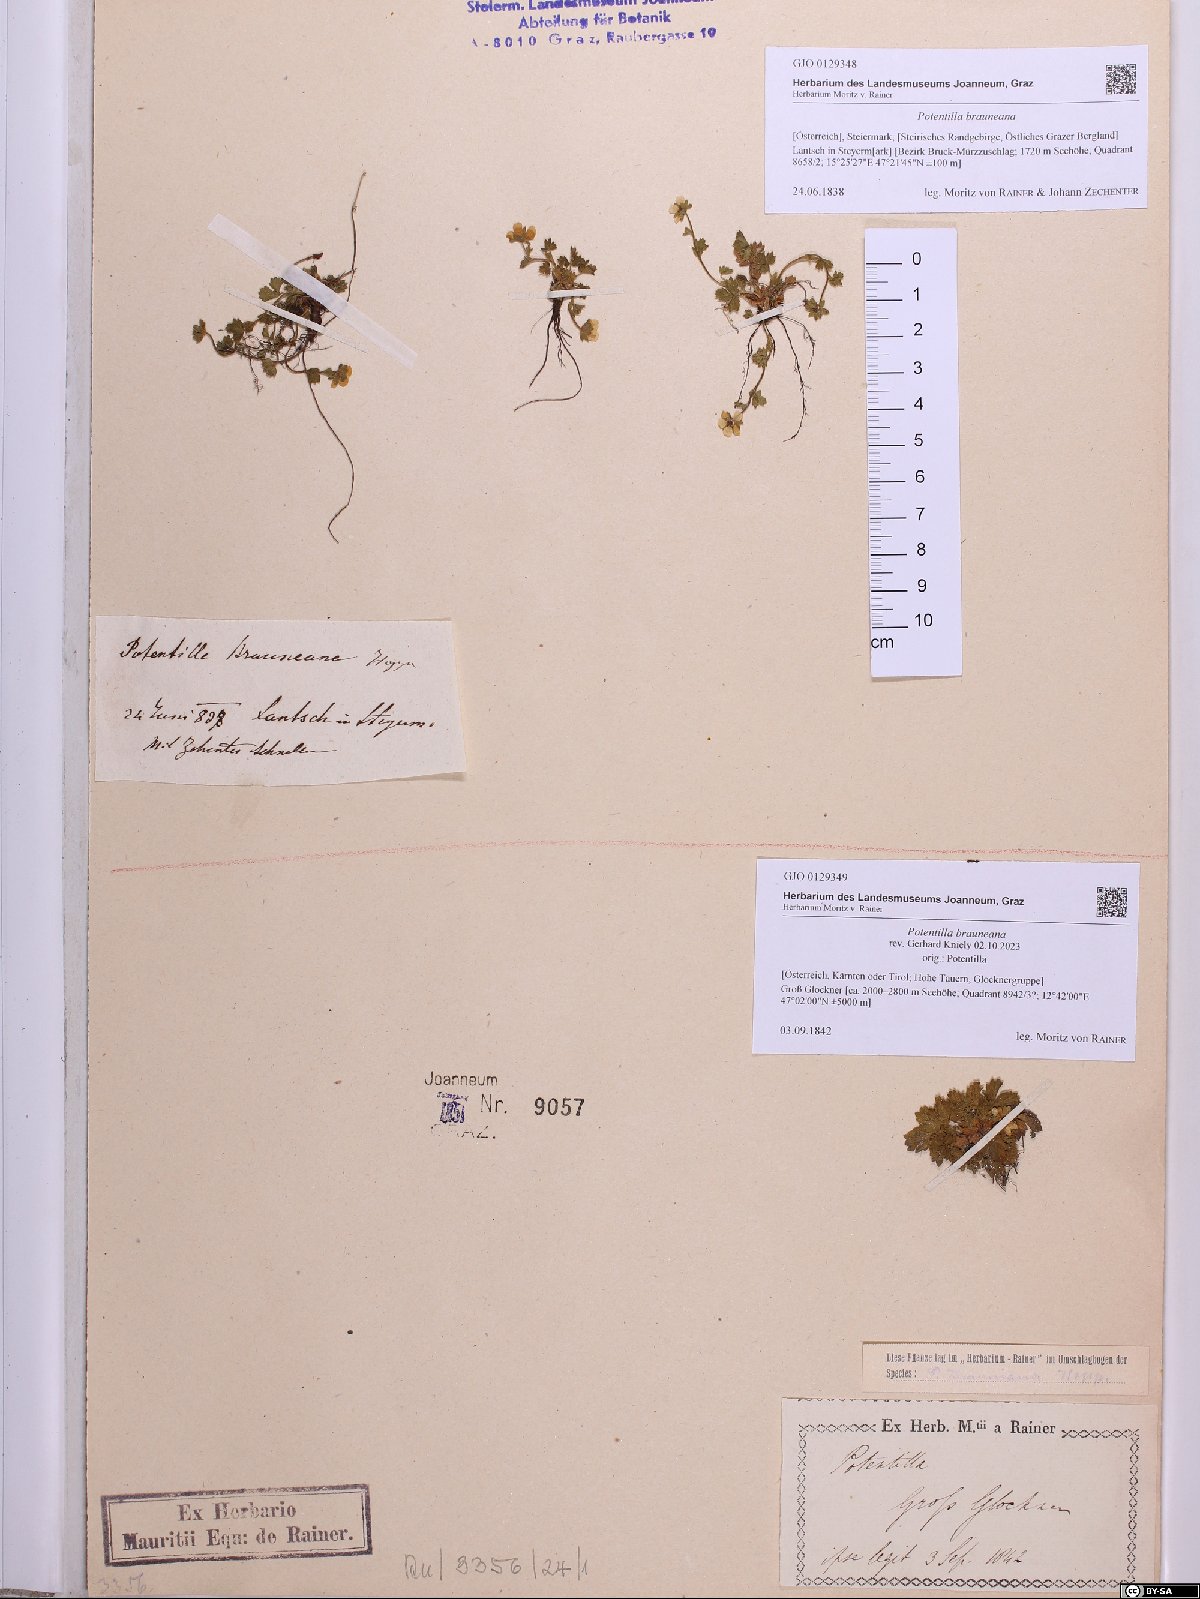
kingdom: Plantae
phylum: Tracheophyta
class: Magnoliopsida
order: Rosales
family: Rosaceae
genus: Potentilla
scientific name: Potentilla brauneana
